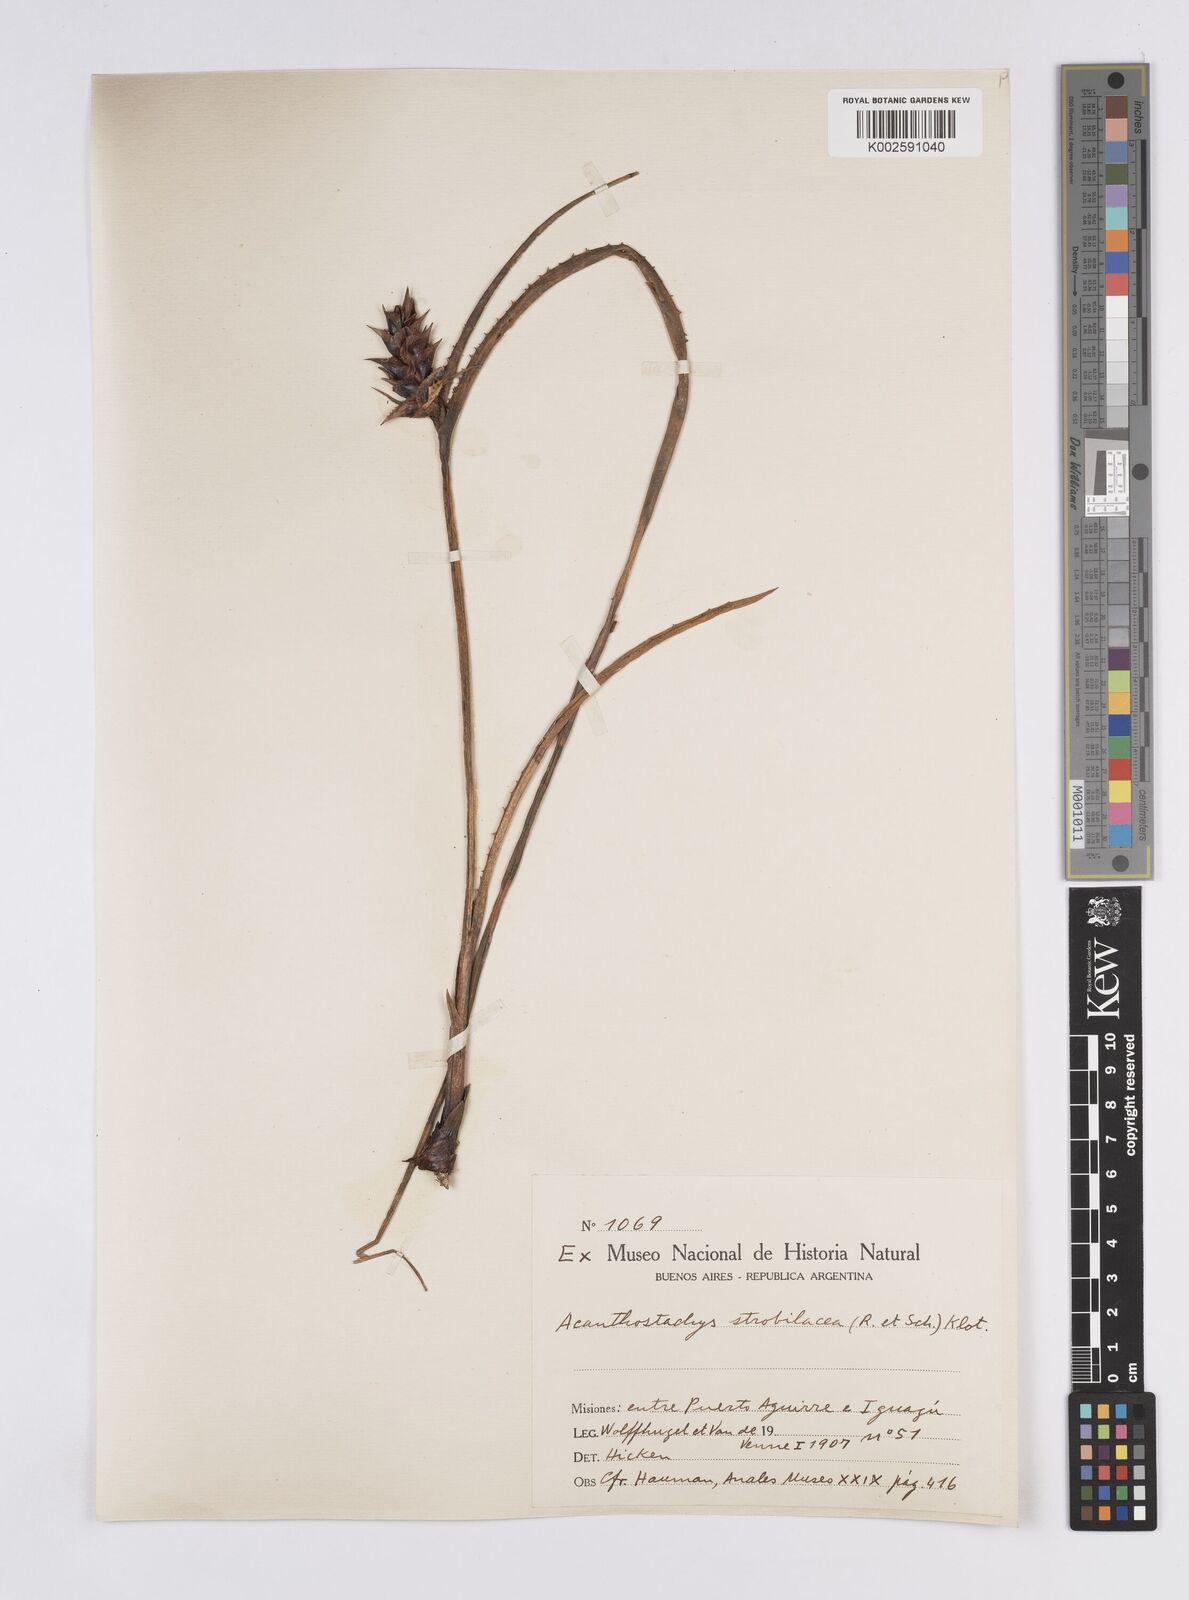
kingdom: Plantae
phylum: Tracheophyta
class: Liliopsida
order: Poales
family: Bromeliaceae
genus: Acanthostachys
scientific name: Acanthostachys strobilacea
